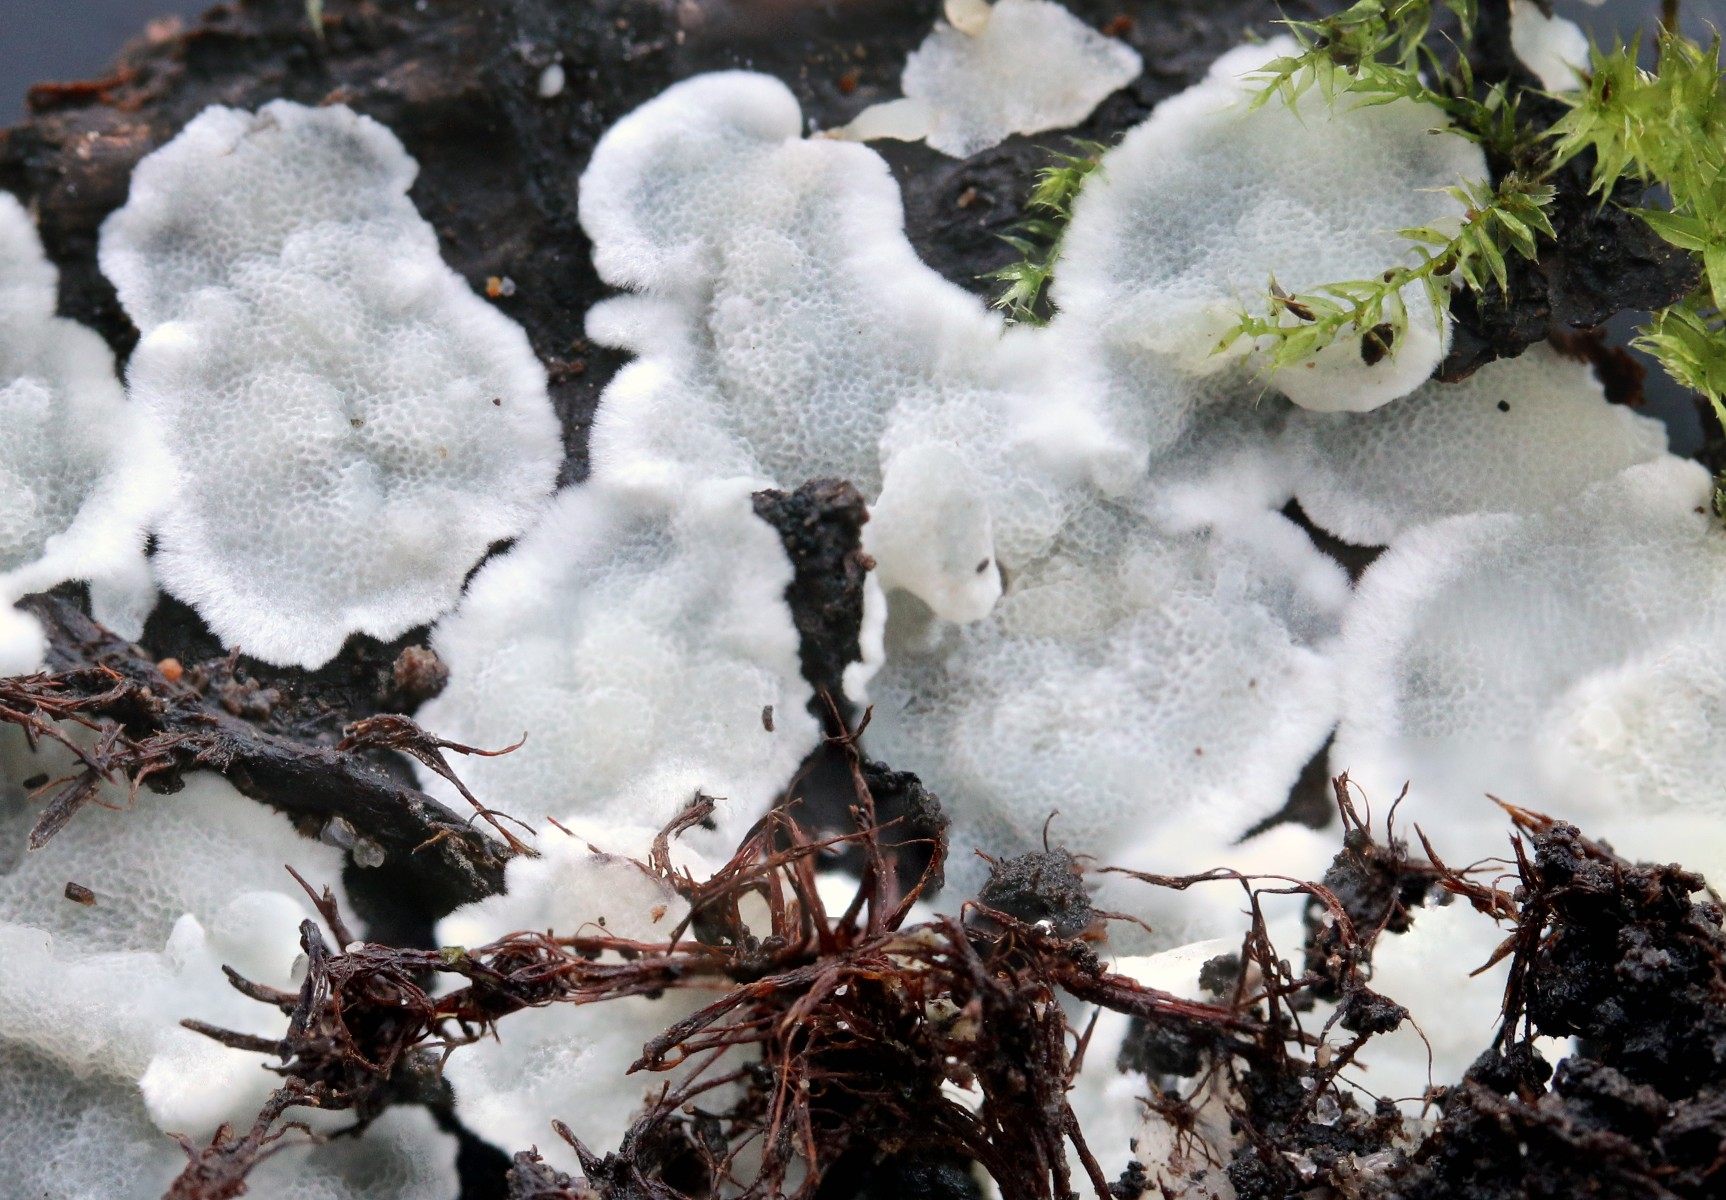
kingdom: Fungi
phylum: Basidiomycota
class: Agaricomycetes
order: Polyporales
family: Meruliaceae
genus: Physisporinus
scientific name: Physisporinus vitreus
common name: mastesvamp
